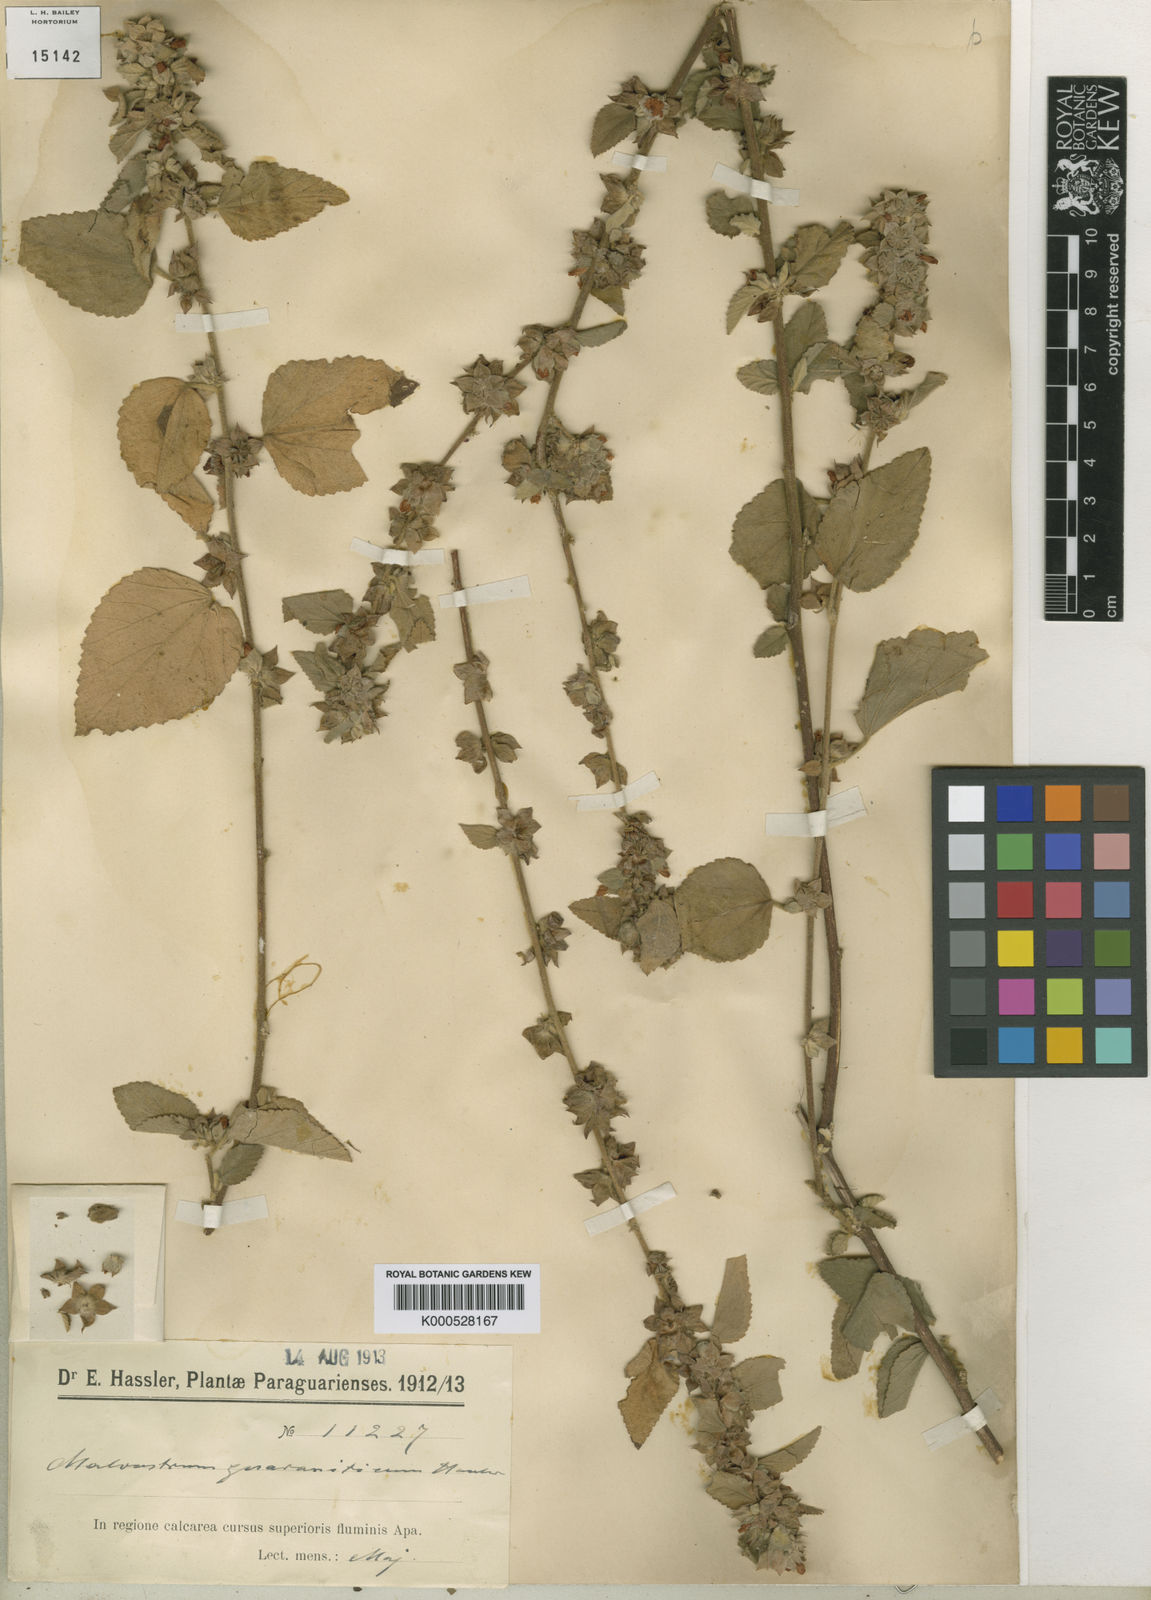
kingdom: Plantae
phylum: Tracheophyta
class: Magnoliopsida
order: Malvales
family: Malvaceae
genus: Malvastrum
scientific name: Malvastrum tomentosum
